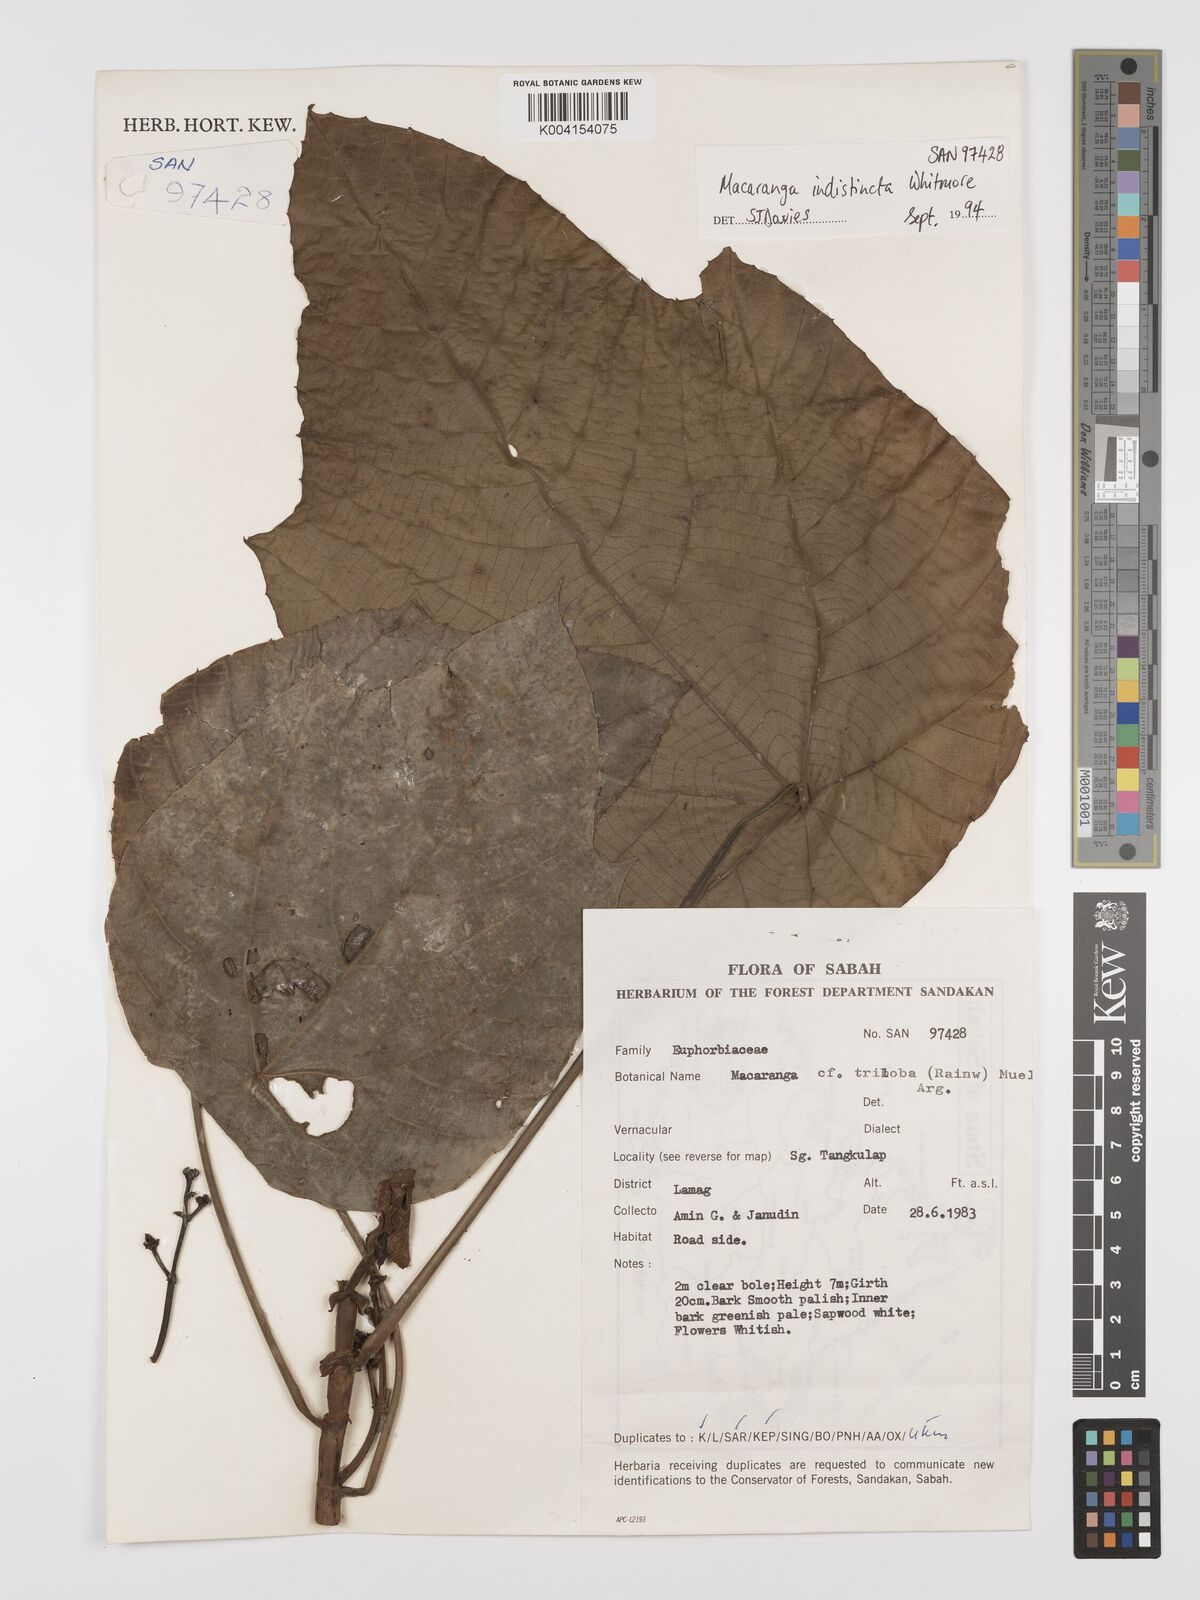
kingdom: Plantae
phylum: Tracheophyta
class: Magnoliopsida
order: Malpighiales
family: Euphorbiaceae
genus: Macaranga
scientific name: Macaranga indistincta
